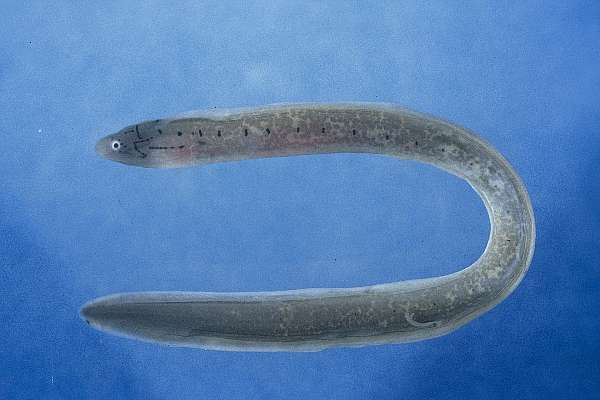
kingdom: Animalia
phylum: Chordata
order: Anguilliformes
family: Muraenidae
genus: Gymnothorax
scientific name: Gymnothorax griseus
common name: Geometric moray
